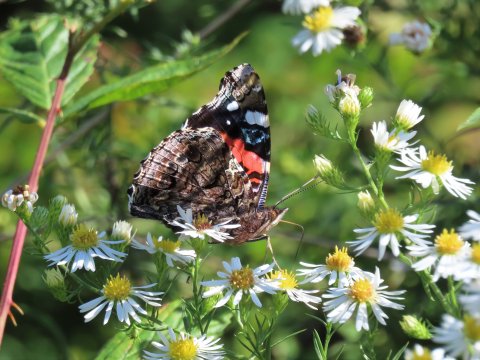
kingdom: Animalia
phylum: Arthropoda
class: Insecta
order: Lepidoptera
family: Nymphalidae
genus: Vanessa
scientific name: Vanessa atalanta
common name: Red Admiral
